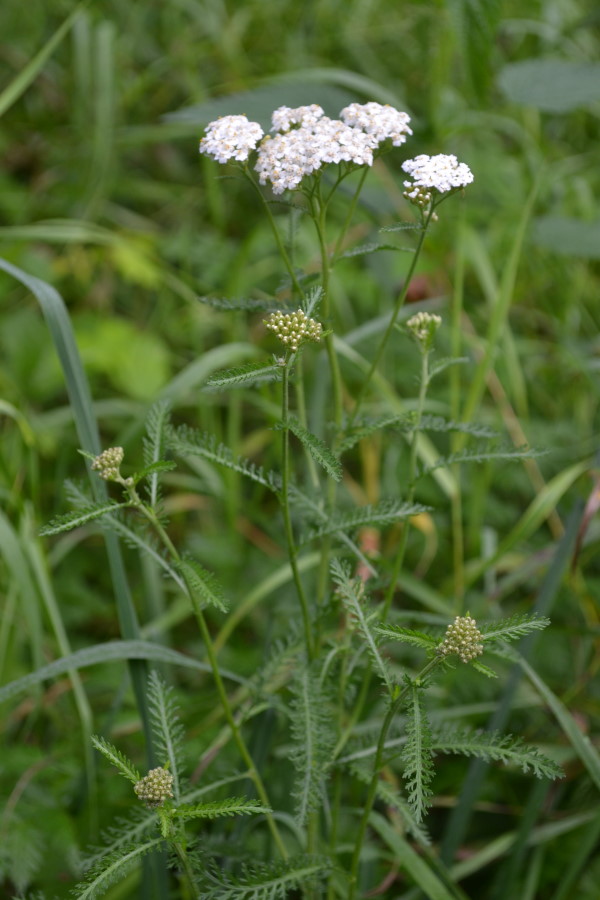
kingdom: Plantae
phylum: Tracheophyta
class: Magnoliopsida
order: Asterales
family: Asteraceae
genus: Achillea
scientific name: Achillea millefolium
